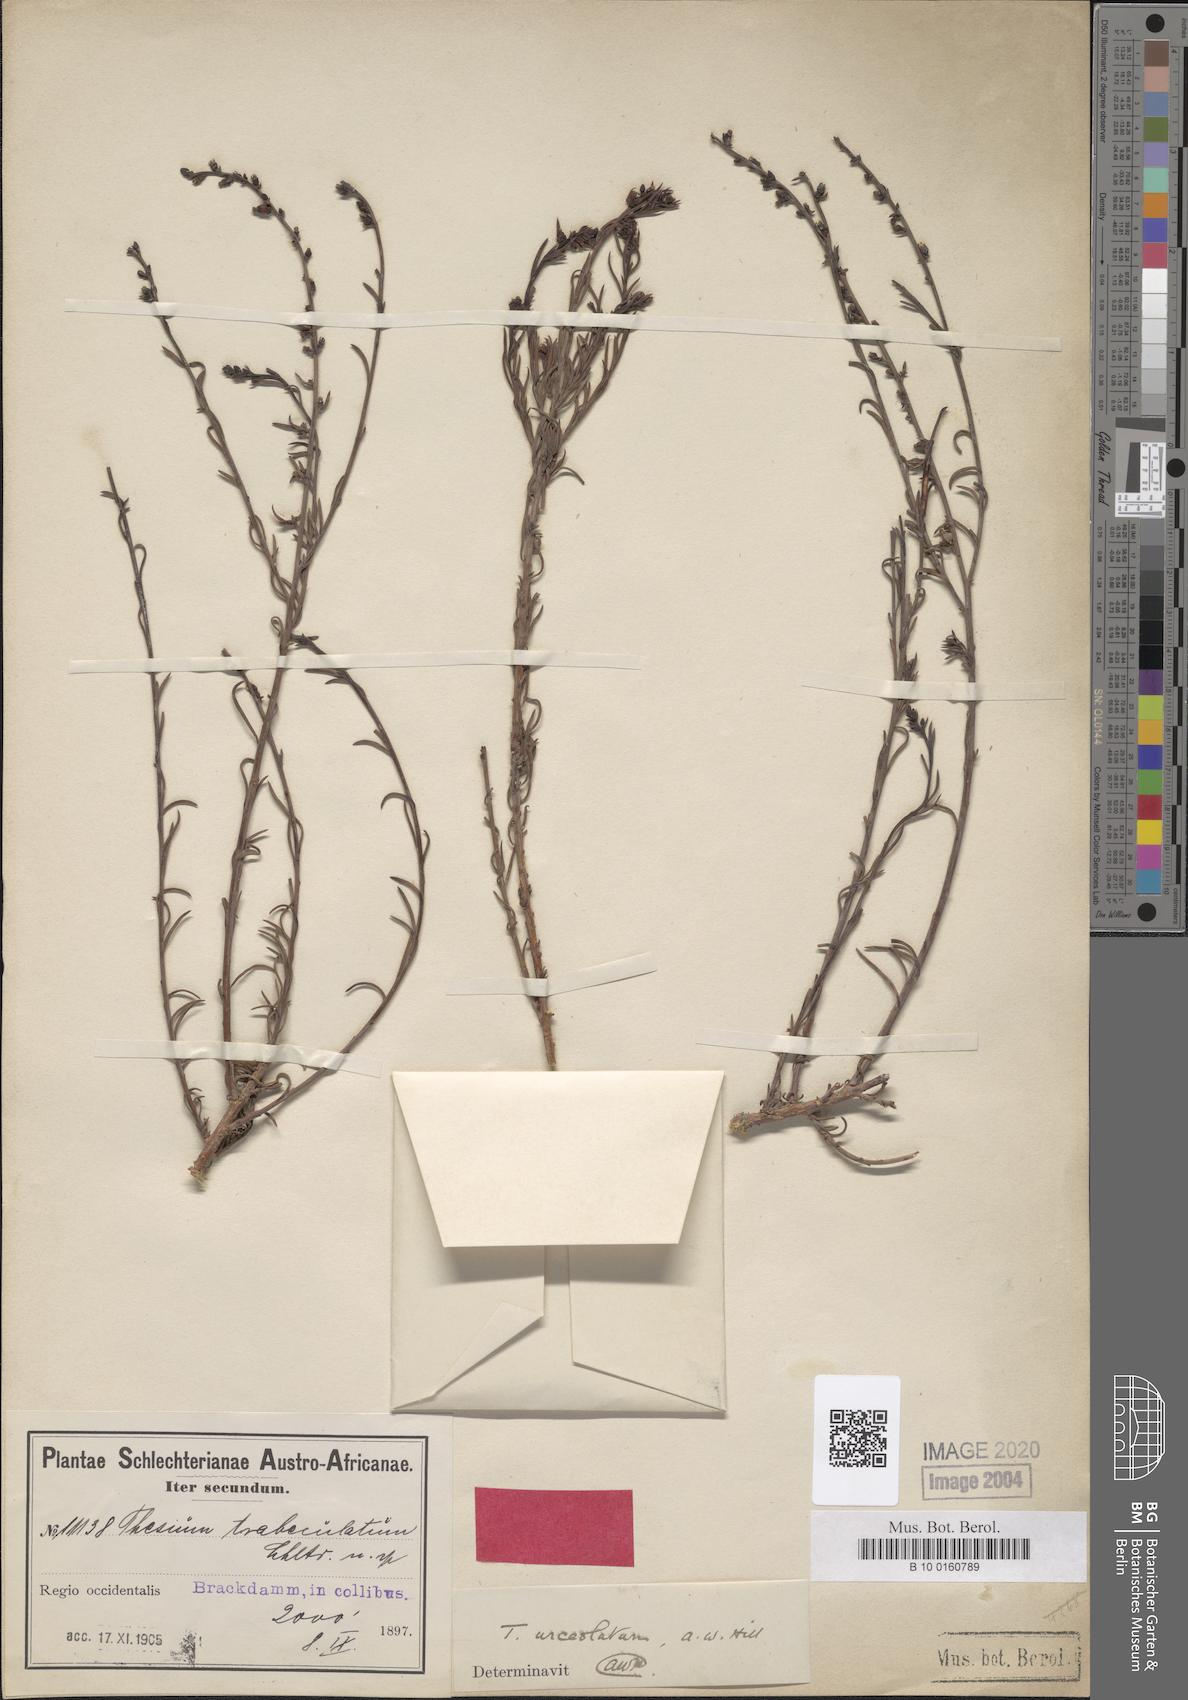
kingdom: Plantae
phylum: Tracheophyta
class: Magnoliopsida
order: Santalales
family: Thesiaceae
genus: Thesium
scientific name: Thesium urceolatum
